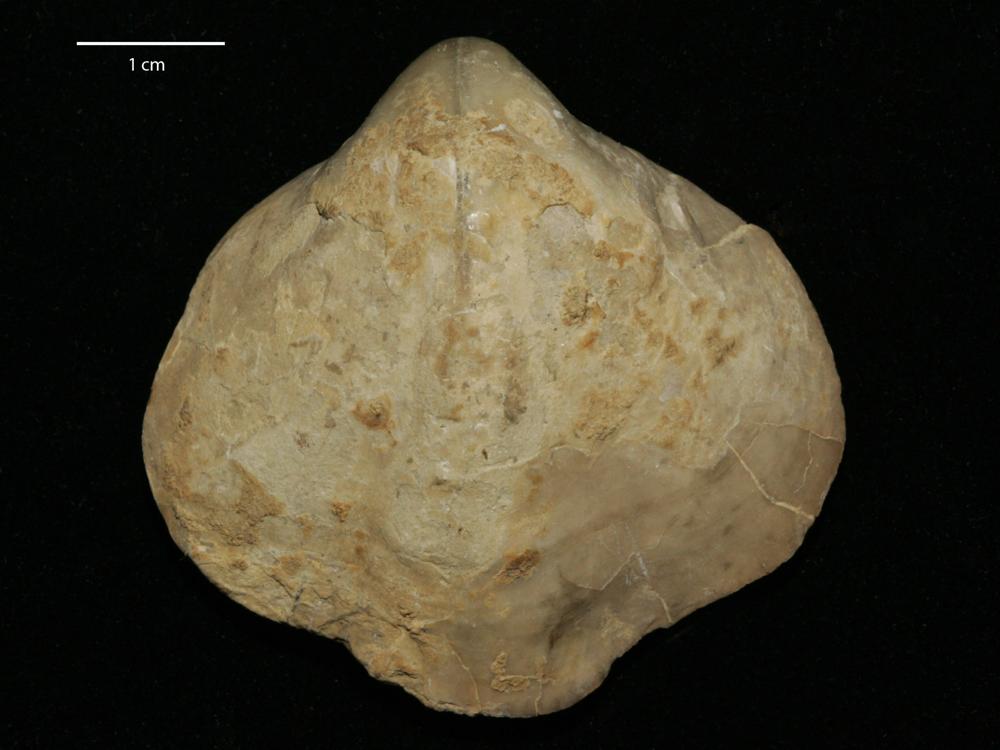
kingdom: Animalia
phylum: Brachiopoda
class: Rhynchonellata
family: Pentameridae
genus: Pentamerus
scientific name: Pentamerus
